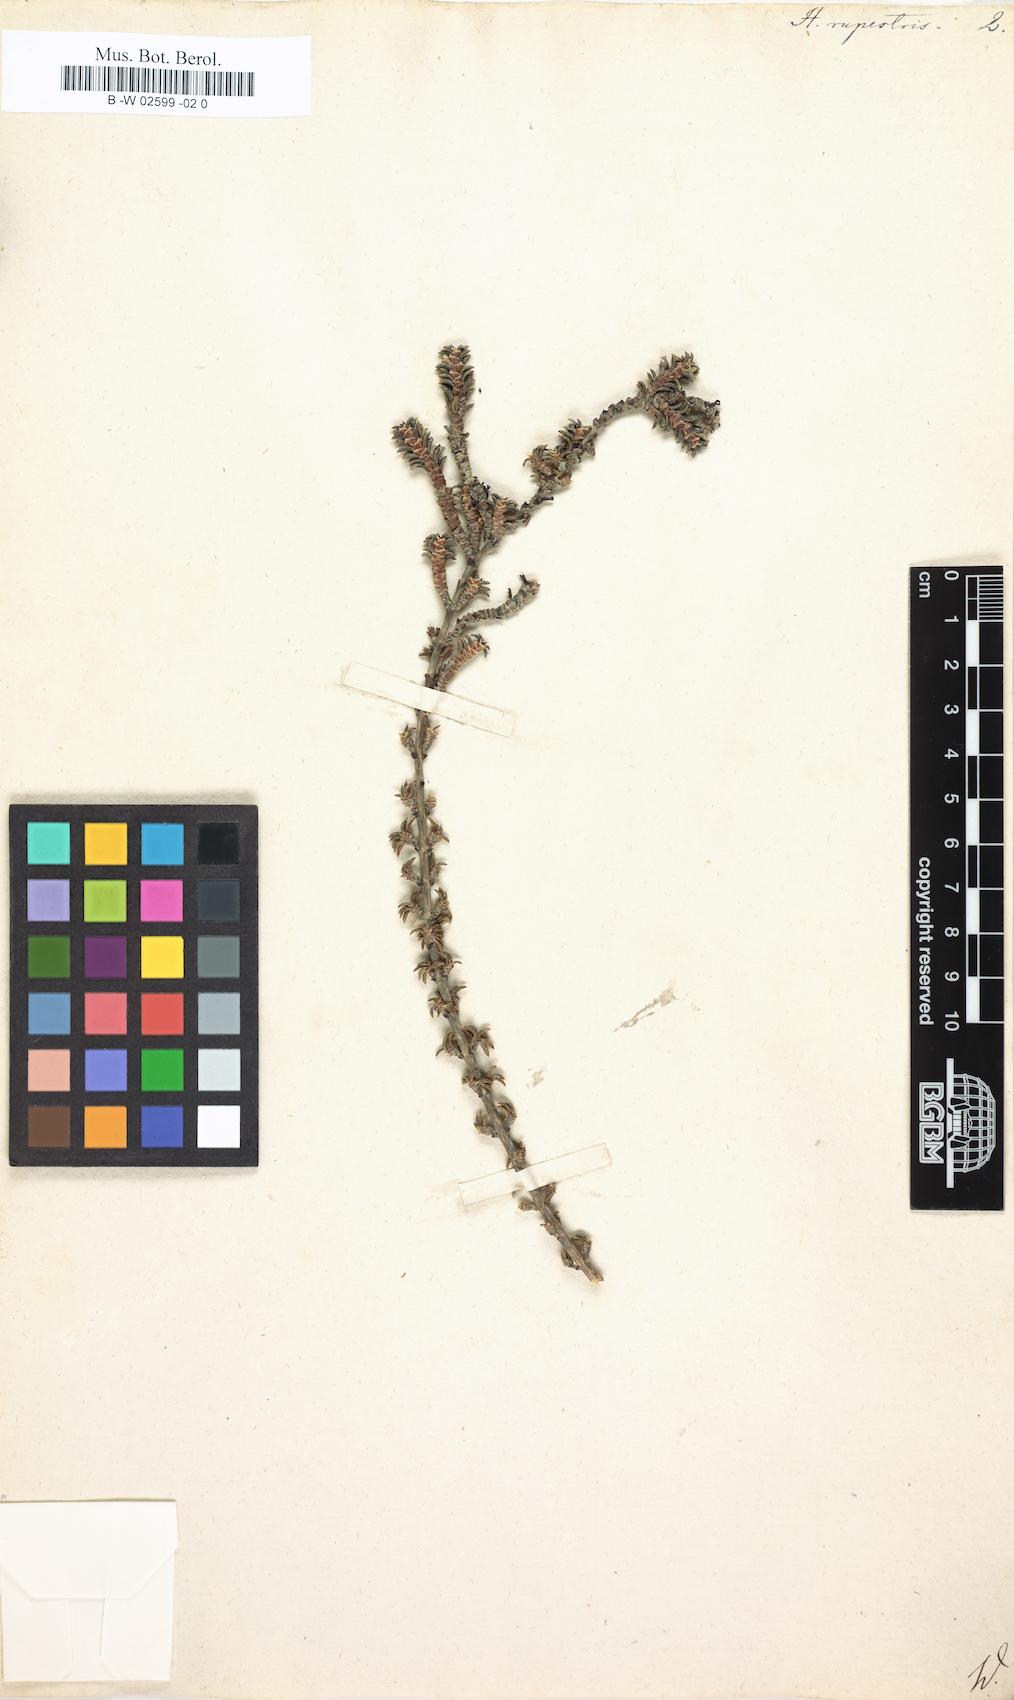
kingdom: Plantae
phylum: Tracheophyta
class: Magnoliopsida
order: Gentianales
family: Rubiaceae
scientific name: Rubiaceae
